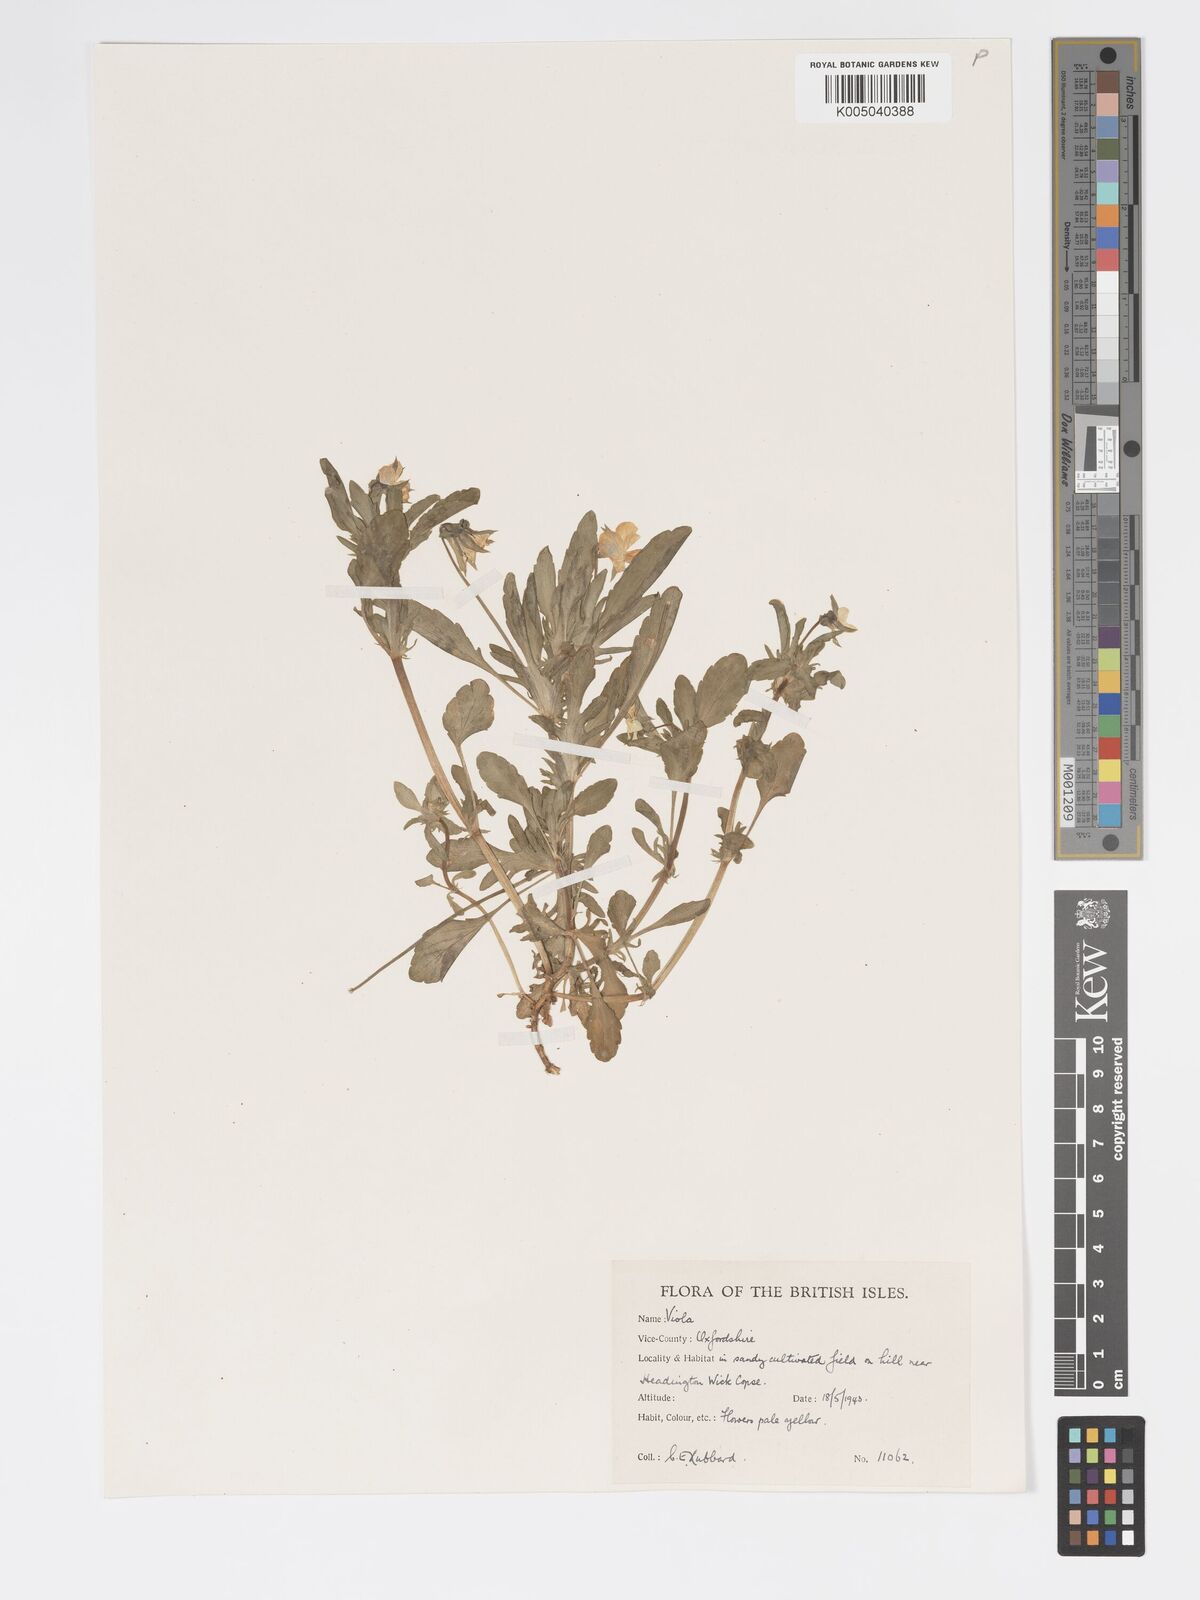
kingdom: Plantae
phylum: Tracheophyta
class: Magnoliopsida
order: Malpighiales
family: Violaceae
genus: Viola
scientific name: Viola arvensis
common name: Field pansy
